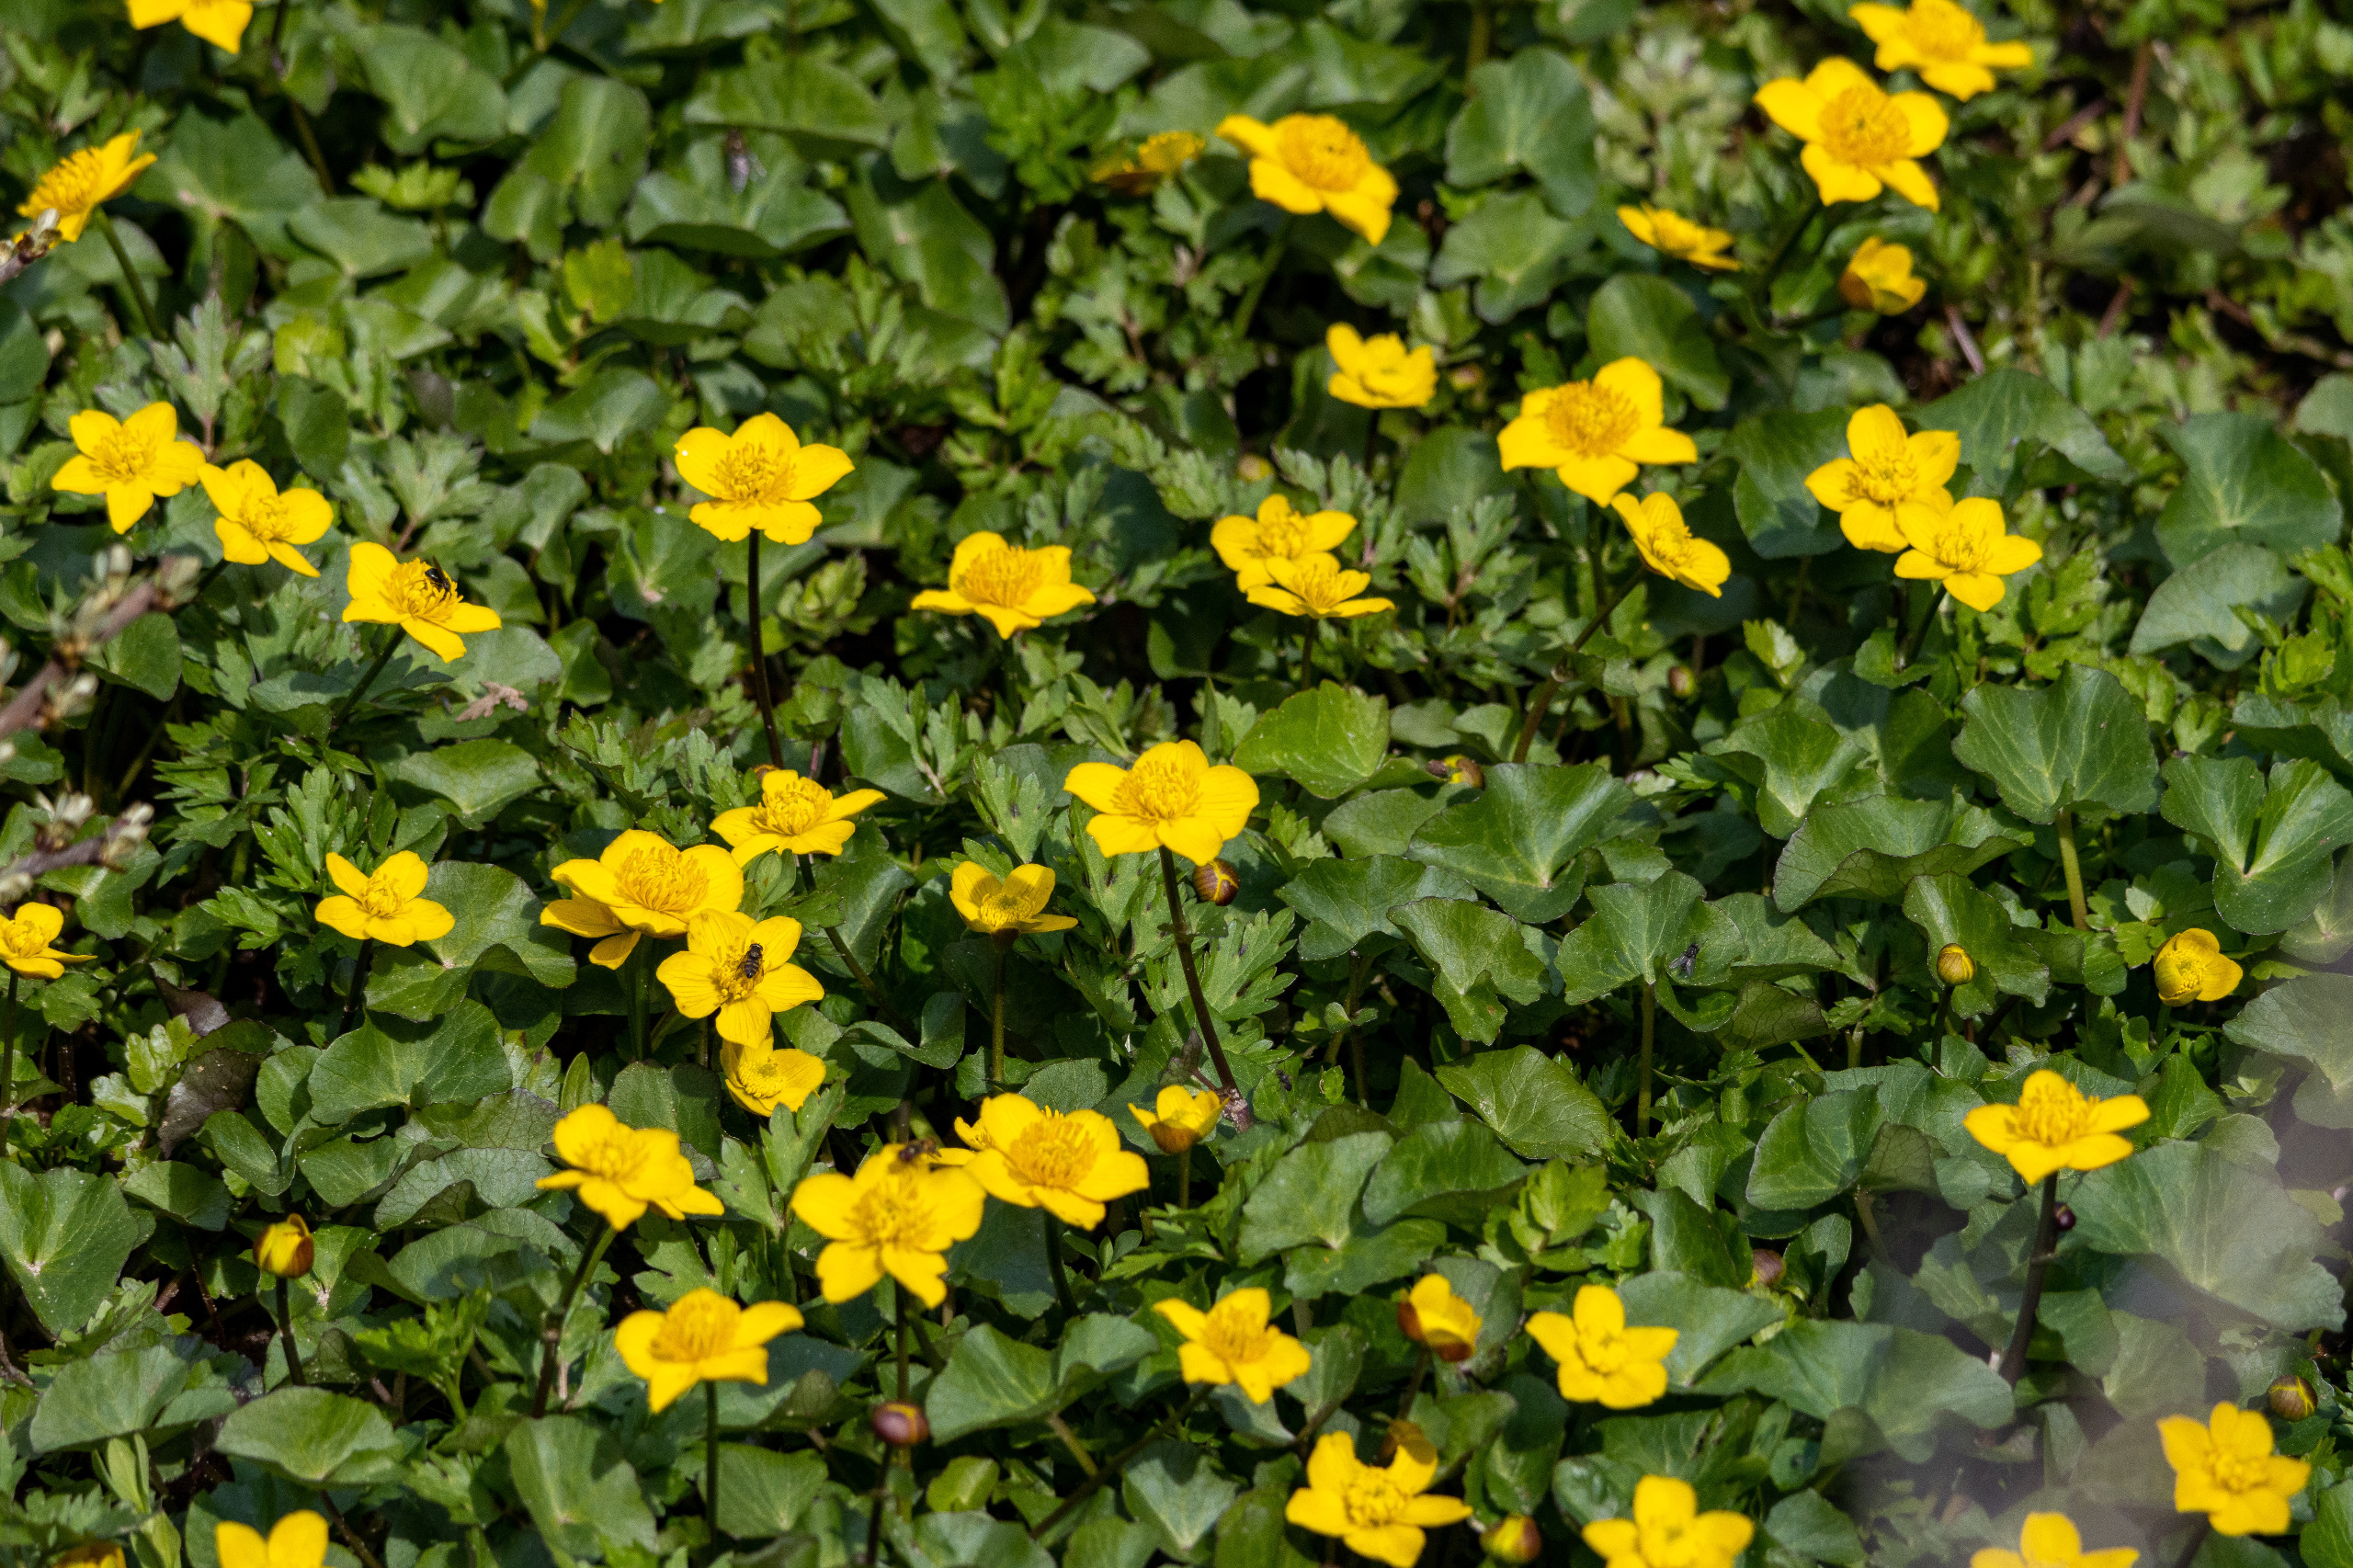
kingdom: Plantae
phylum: Tracheophyta
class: Magnoliopsida
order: Ranunculales
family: Ranunculaceae
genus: Caltha
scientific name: Caltha palustris
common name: Eng-kabbeleje
